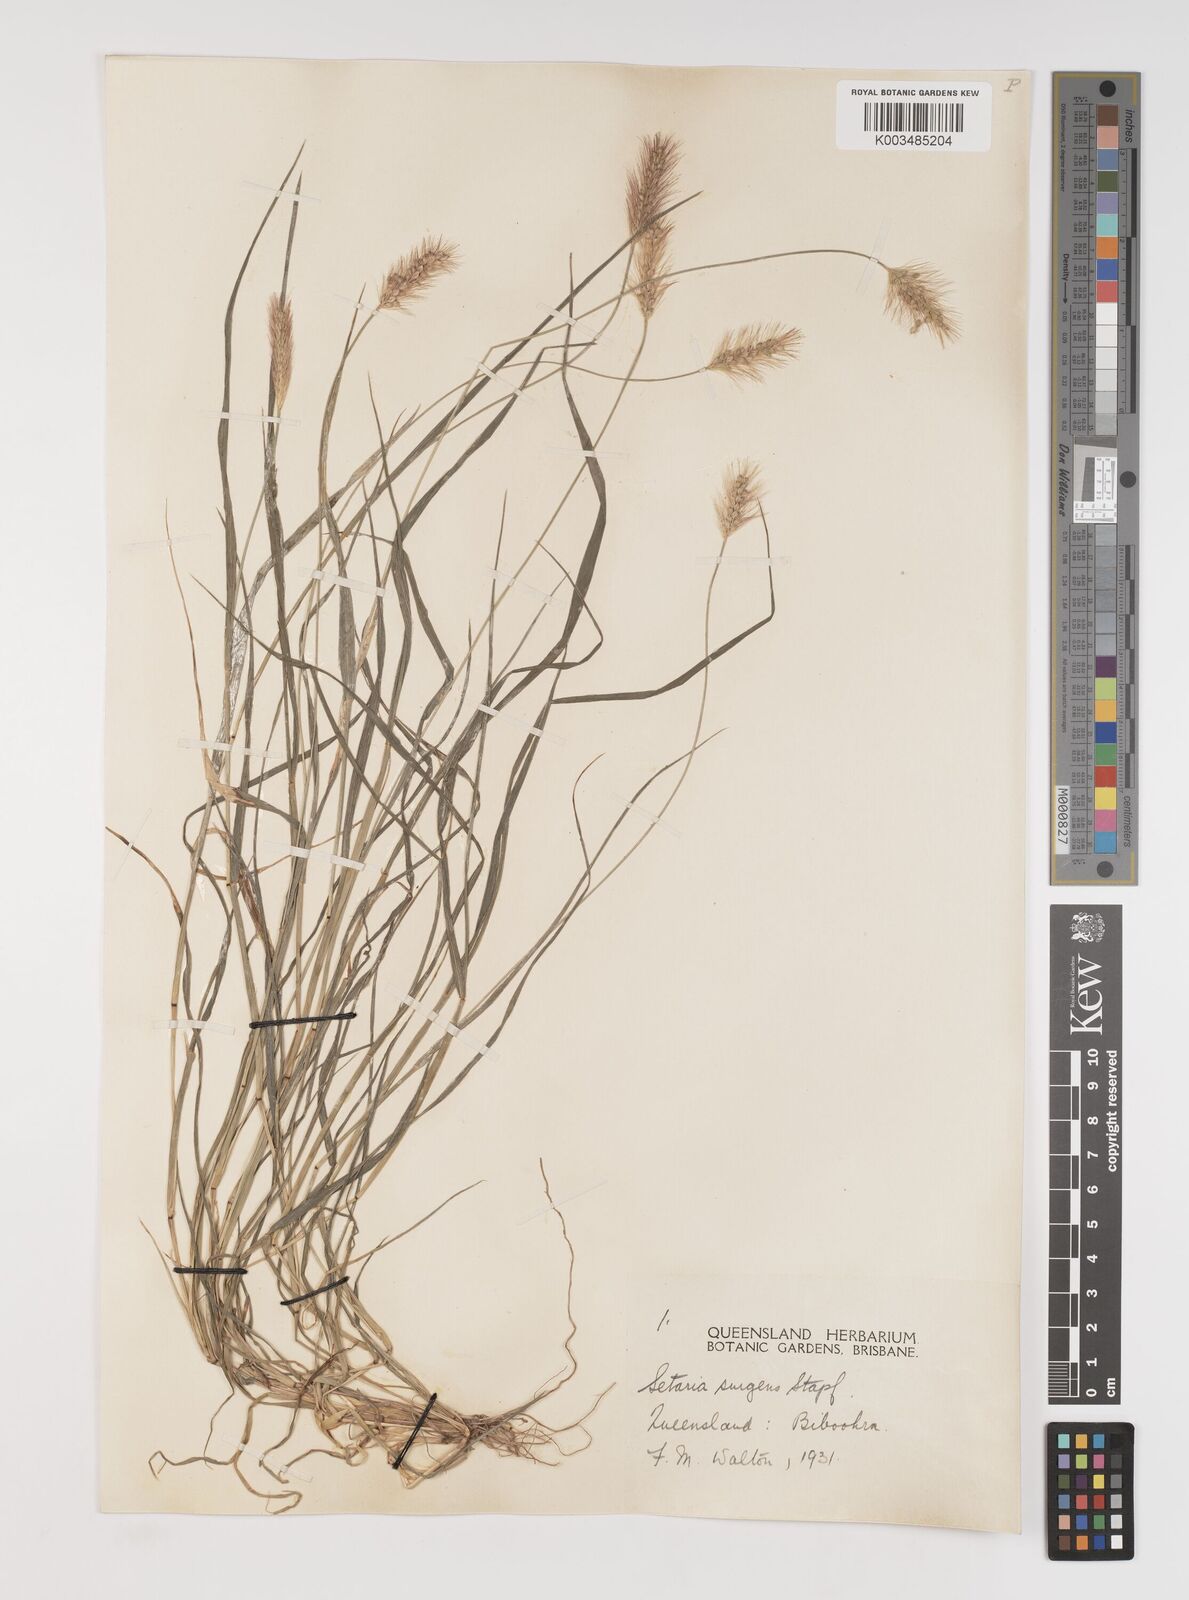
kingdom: Plantae
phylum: Tracheophyta
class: Liliopsida
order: Poales
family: Poaceae
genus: Setaria
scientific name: Setaria apiculata
